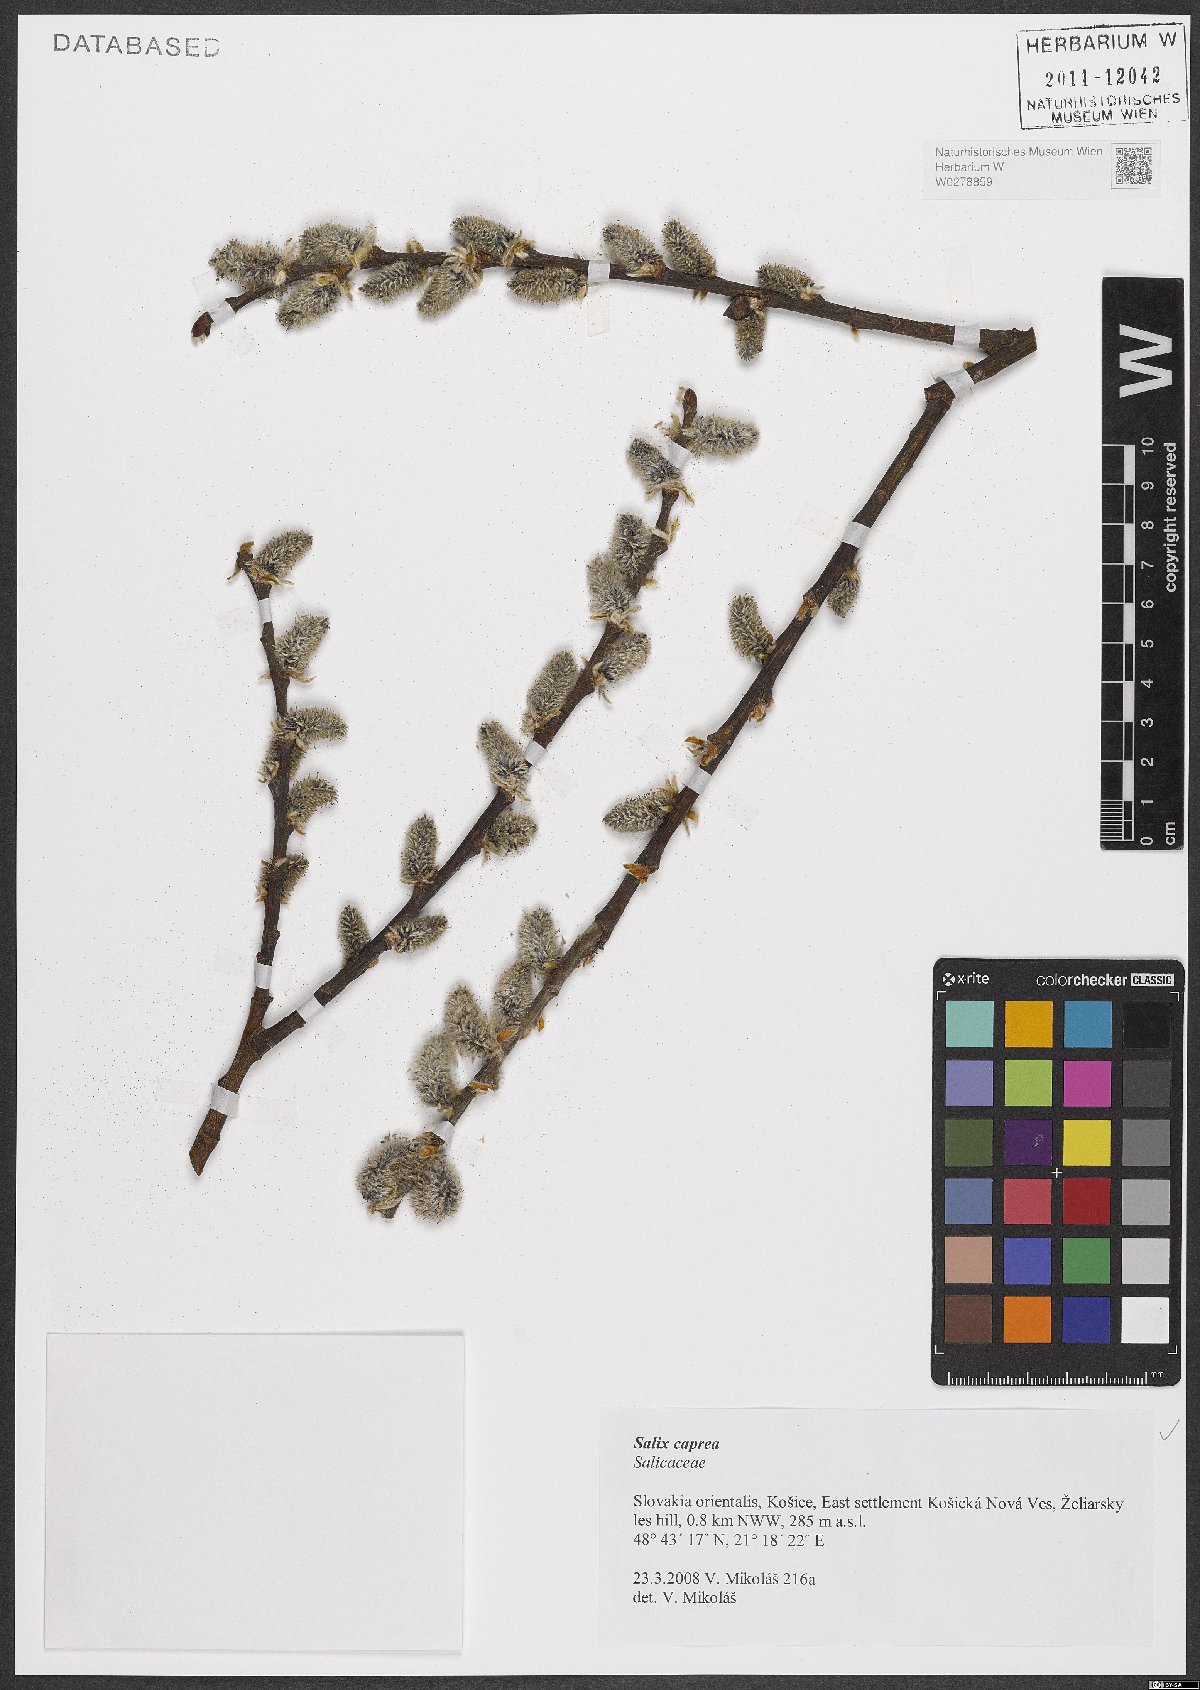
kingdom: Plantae
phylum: Tracheophyta
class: Magnoliopsida
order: Malpighiales
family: Salicaceae
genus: Salix
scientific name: Salix caprea
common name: Goat willow
